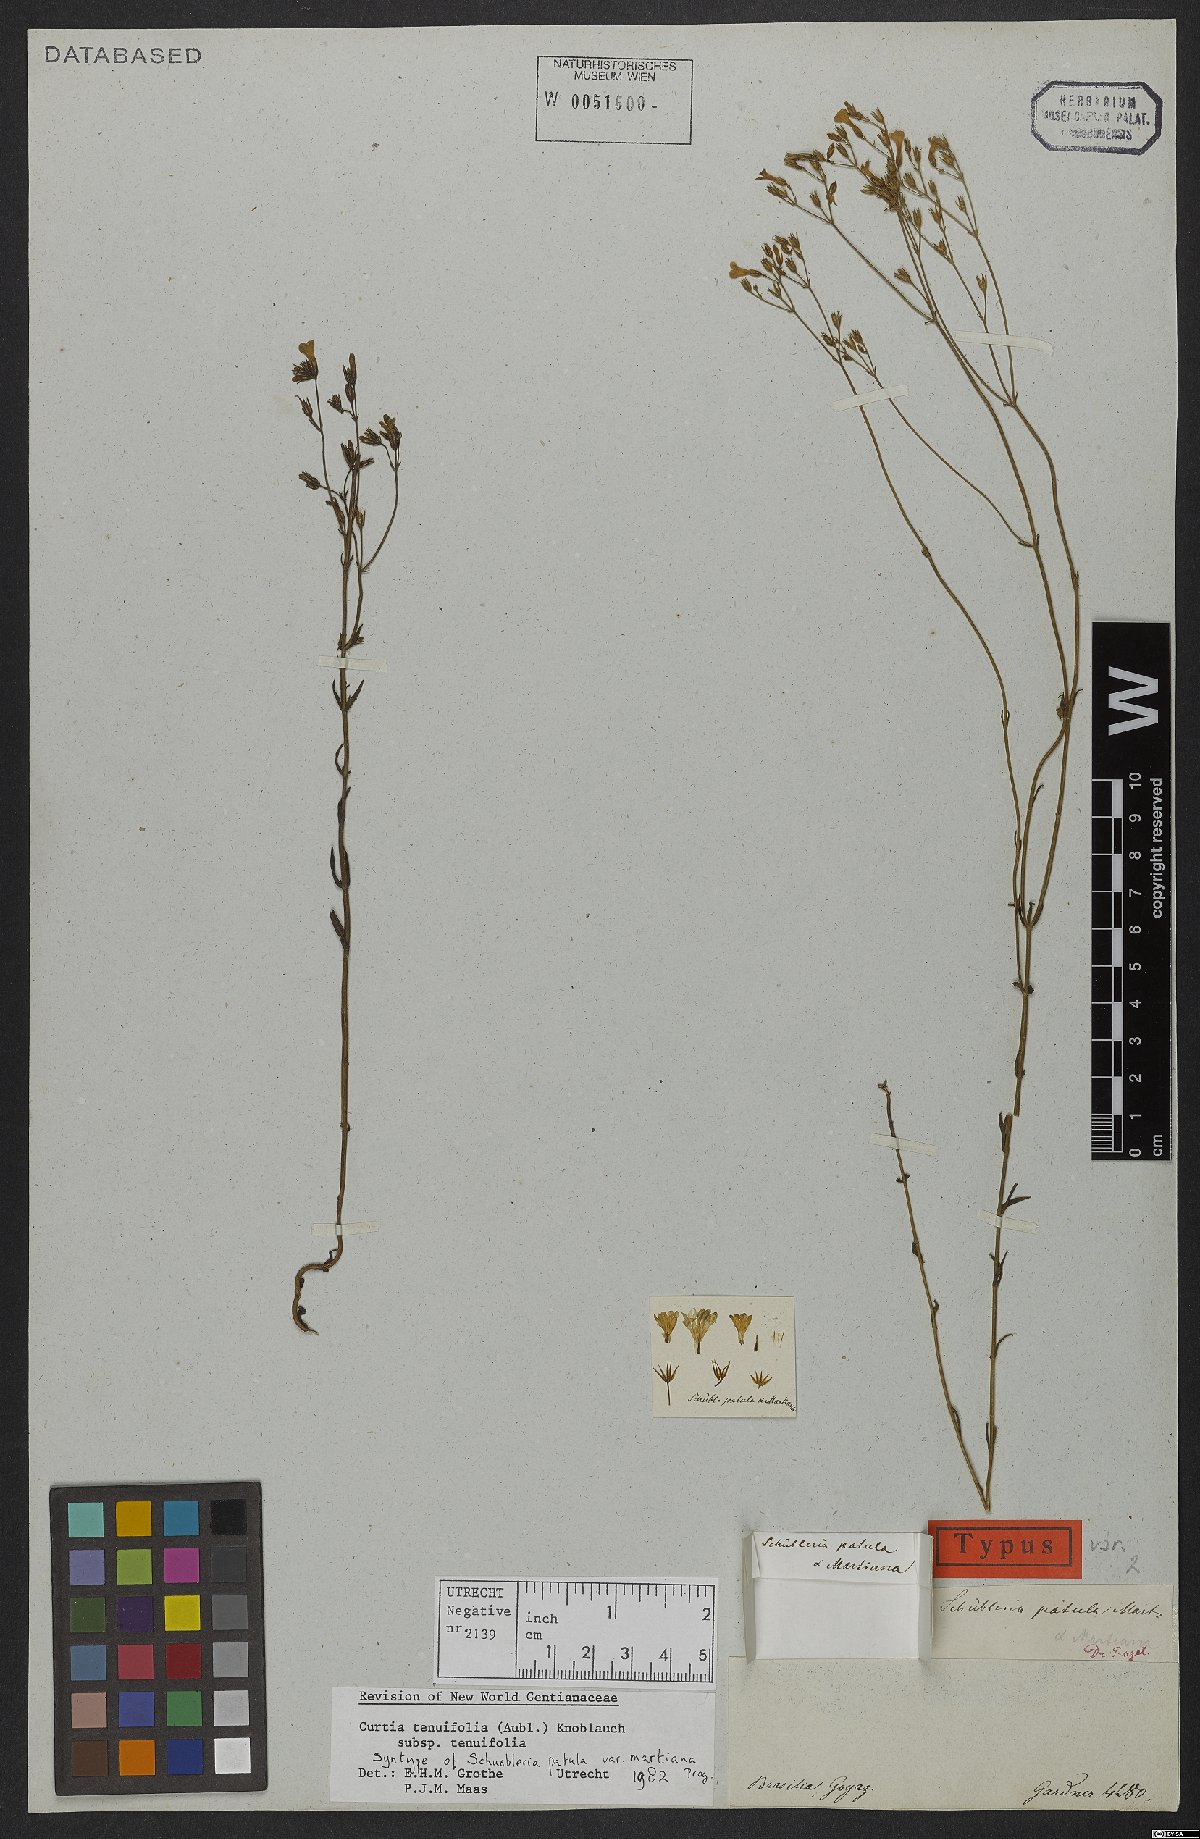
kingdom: Plantae
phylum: Tracheophyta
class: Magnoliopsida
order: Gentianales
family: Gentianaceae
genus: Curtia
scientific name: Curtia tenuifolia
